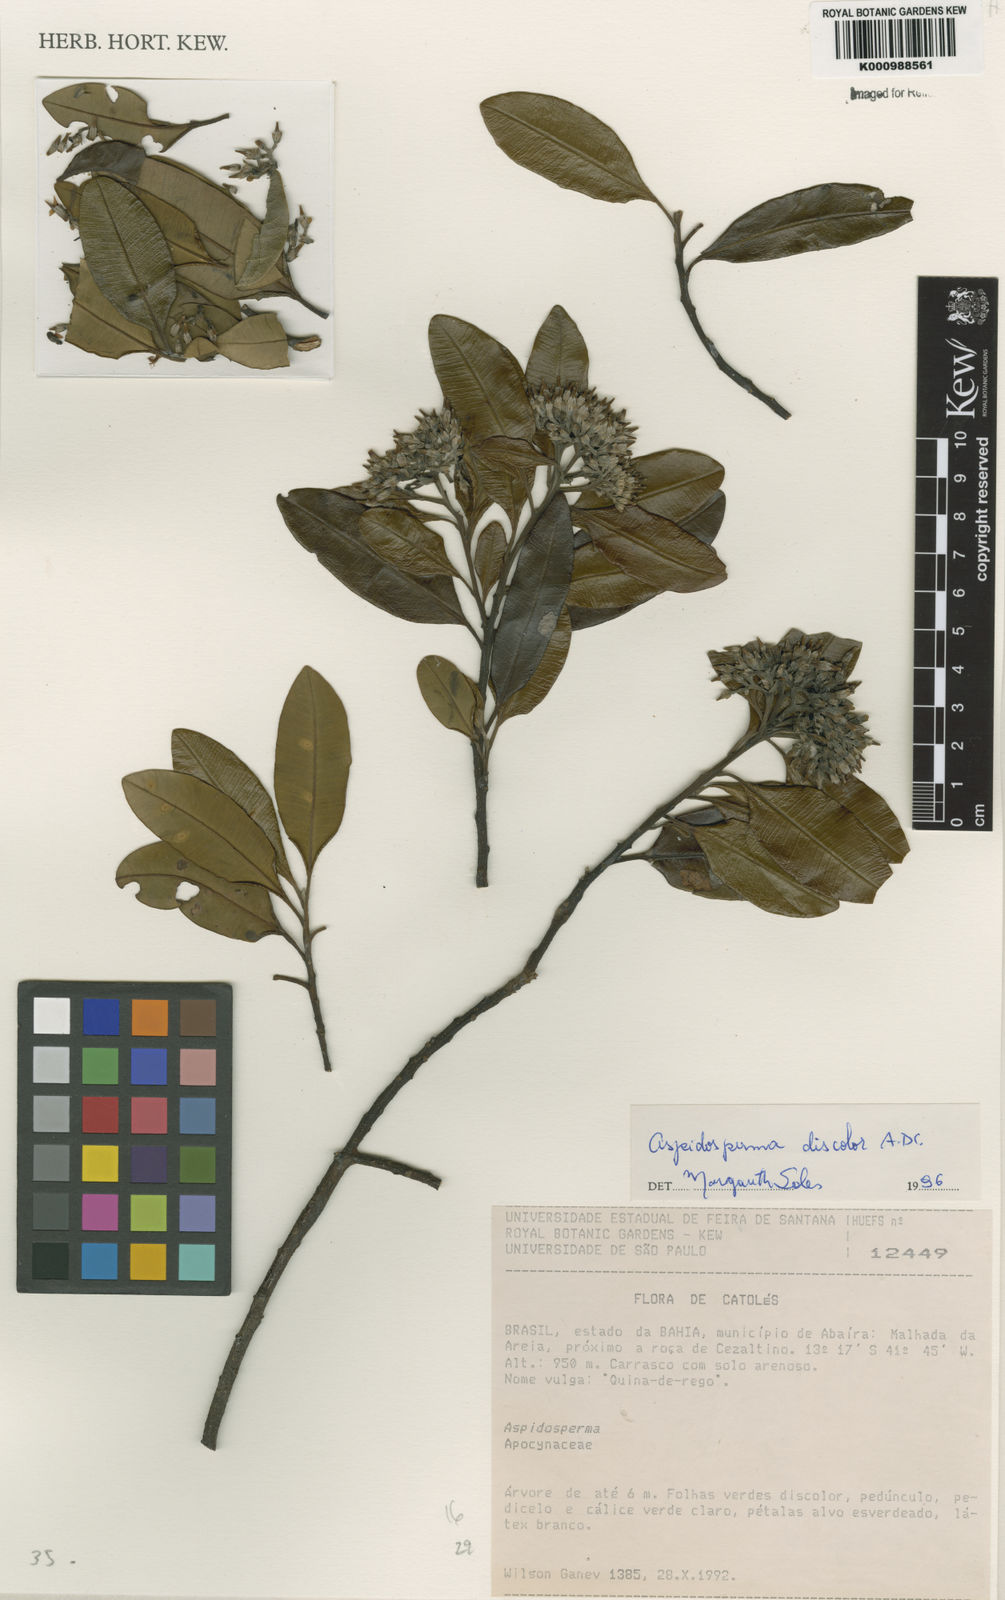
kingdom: Plantae
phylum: Tracheophyta
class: Magnoliopsida
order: Gentianales
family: Apocynaceae
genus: Aspidosperma
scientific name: Aspidosperma discolor
